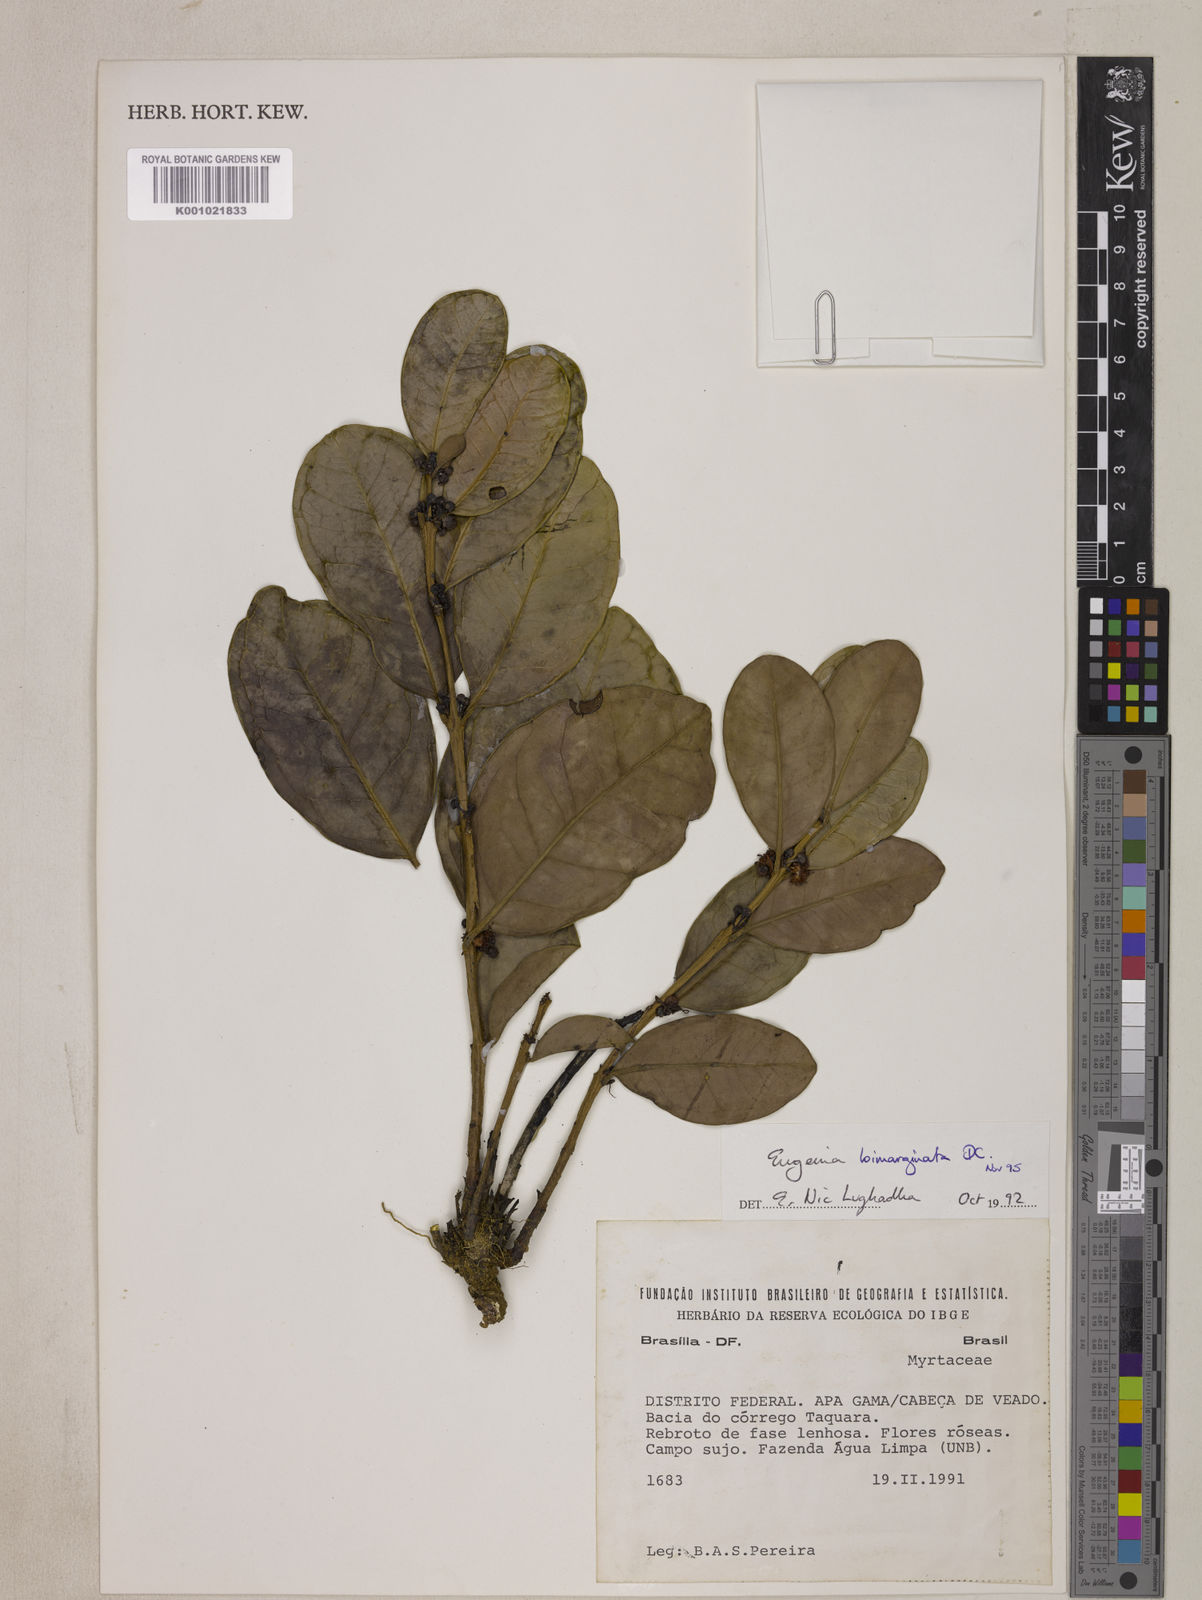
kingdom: Plantae
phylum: Tracheophyta
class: Magnoliopsida
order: Myrtales
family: Myrtaceae
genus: Eugenia
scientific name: Eugenia bimarginata
